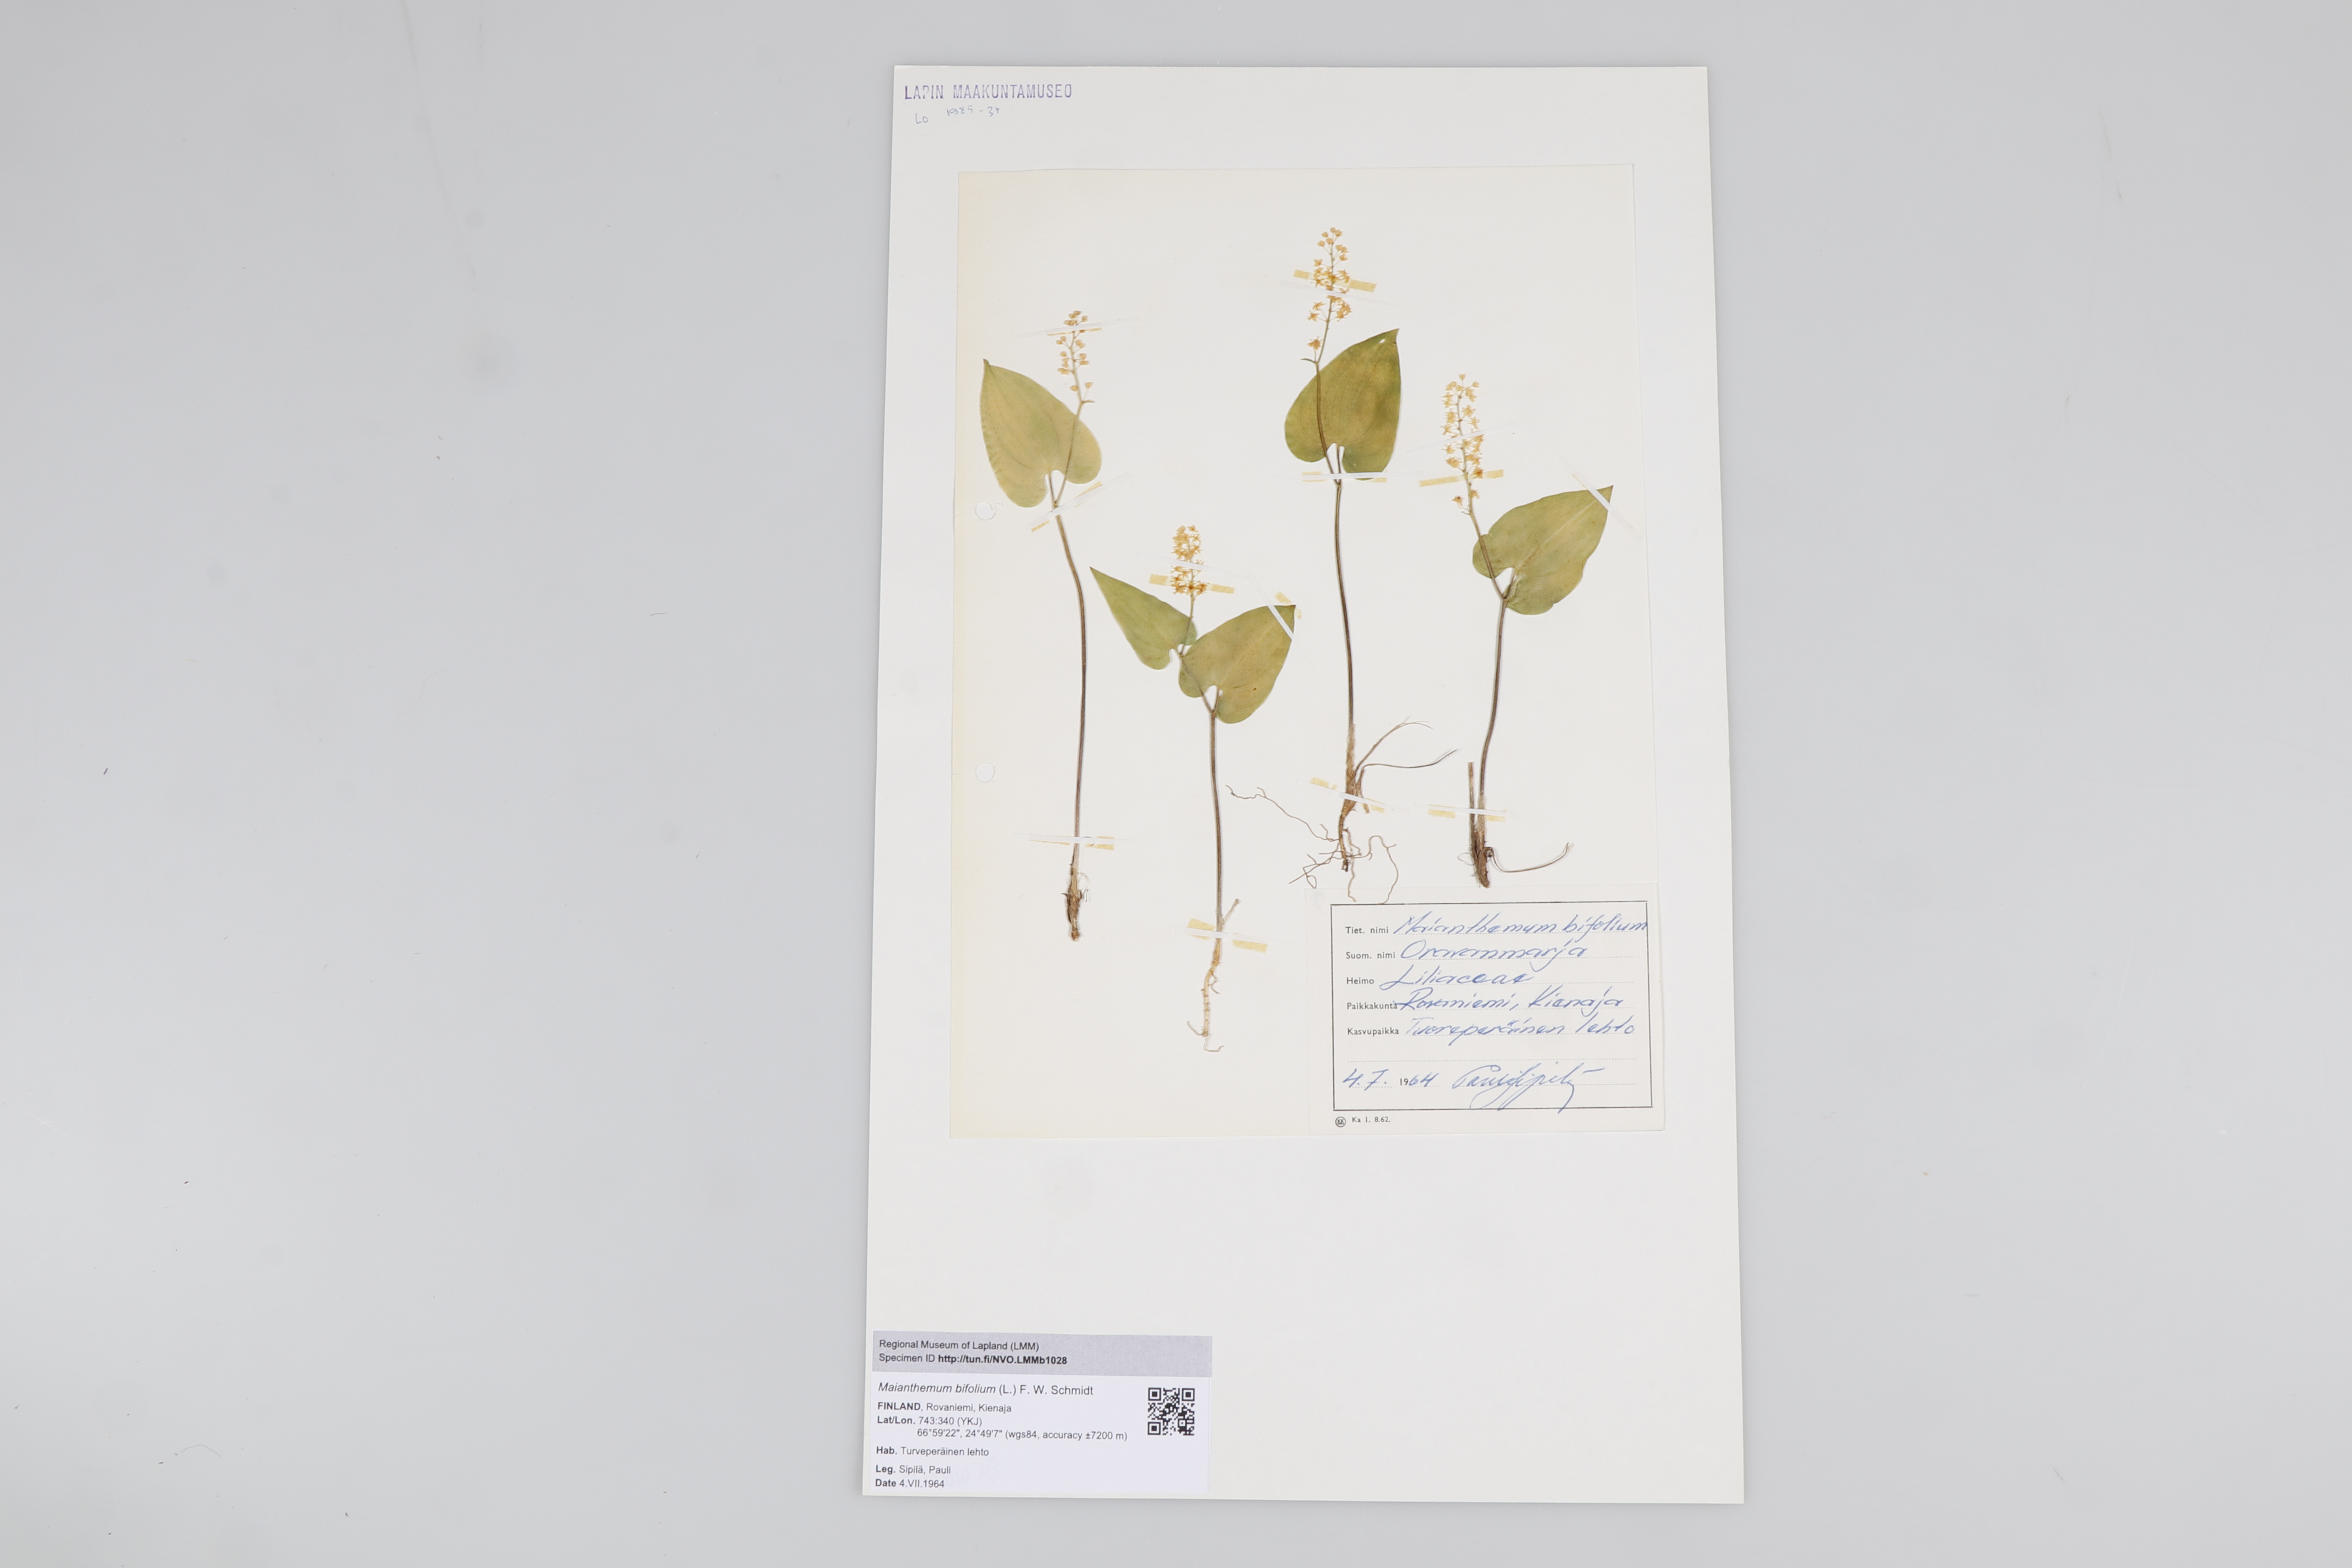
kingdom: Plantae
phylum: Tracheophyta
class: Liliopsida
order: Asparagales
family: Asparagaceae
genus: Maianthemum
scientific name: Maianthemum bifolium
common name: May lily
